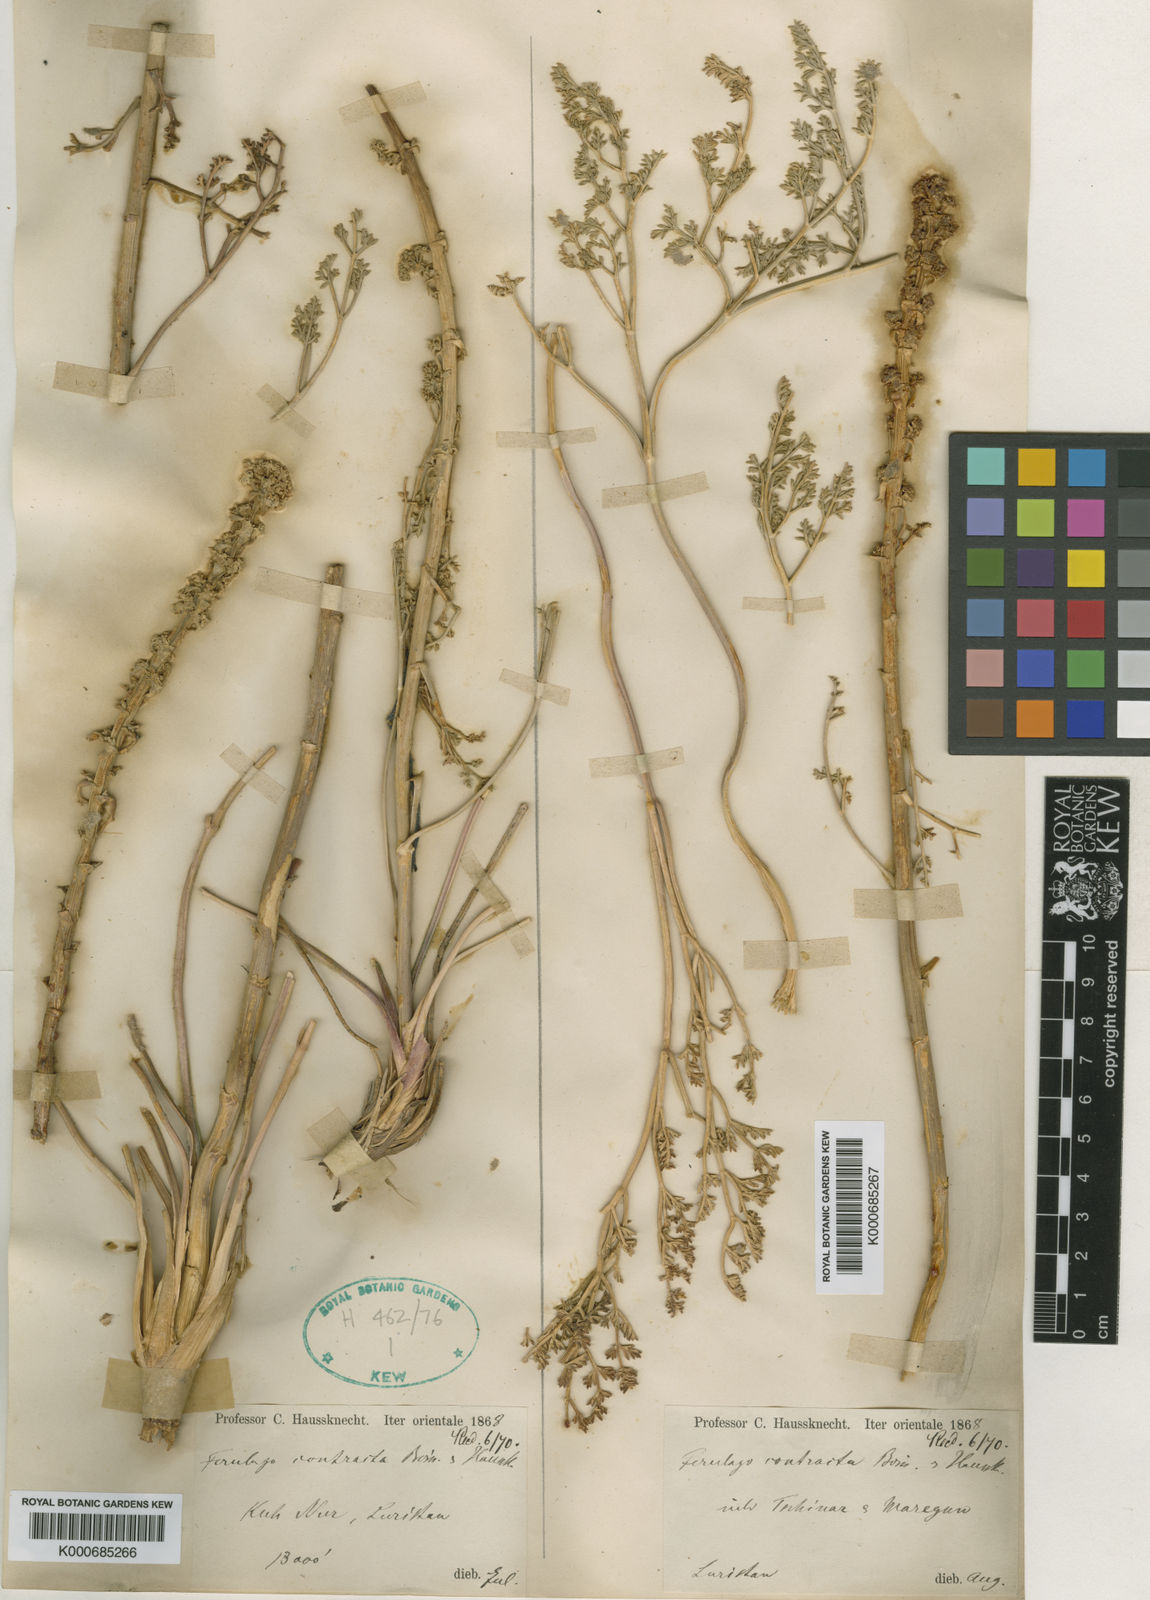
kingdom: Plantae
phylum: Tracheophyta
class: Magnoliopsida
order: Apiales
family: Apiaceae
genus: Ferulago
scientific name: Ferulago lutea
